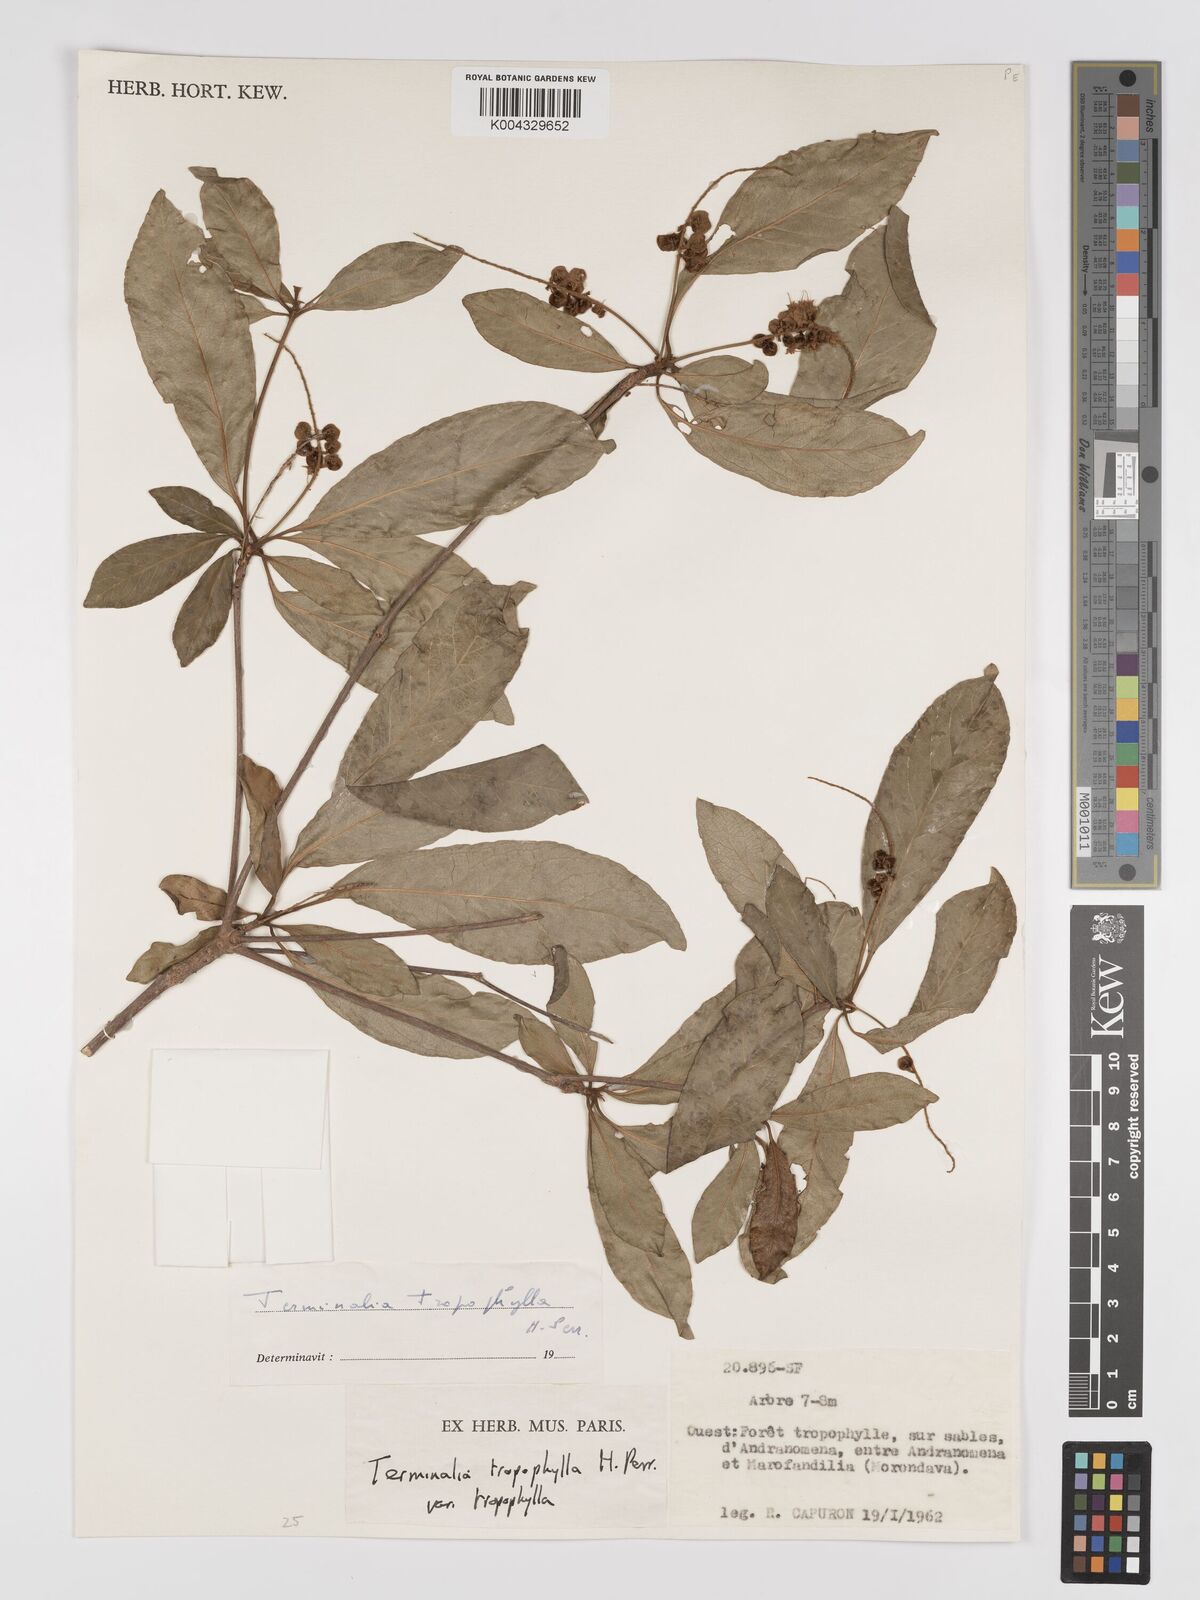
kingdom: Plantae
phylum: Tracheophyta
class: Magnoliopsida
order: Myrtales
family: Combretaceae
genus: Terminalia
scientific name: Terminalia tropophylla
